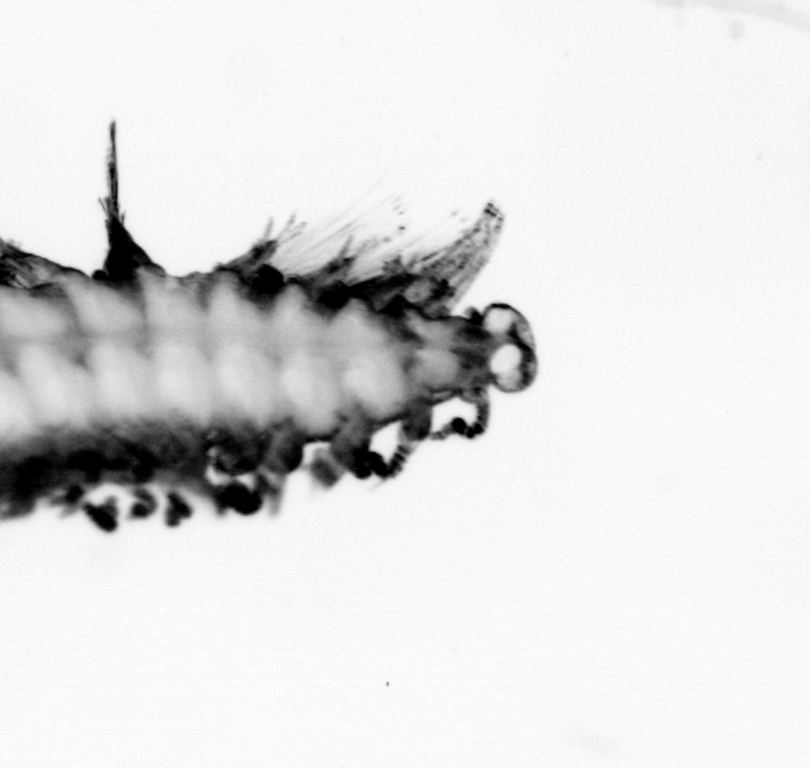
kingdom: Animalia
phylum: Annelida
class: Polychaeta
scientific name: Polychaeta
